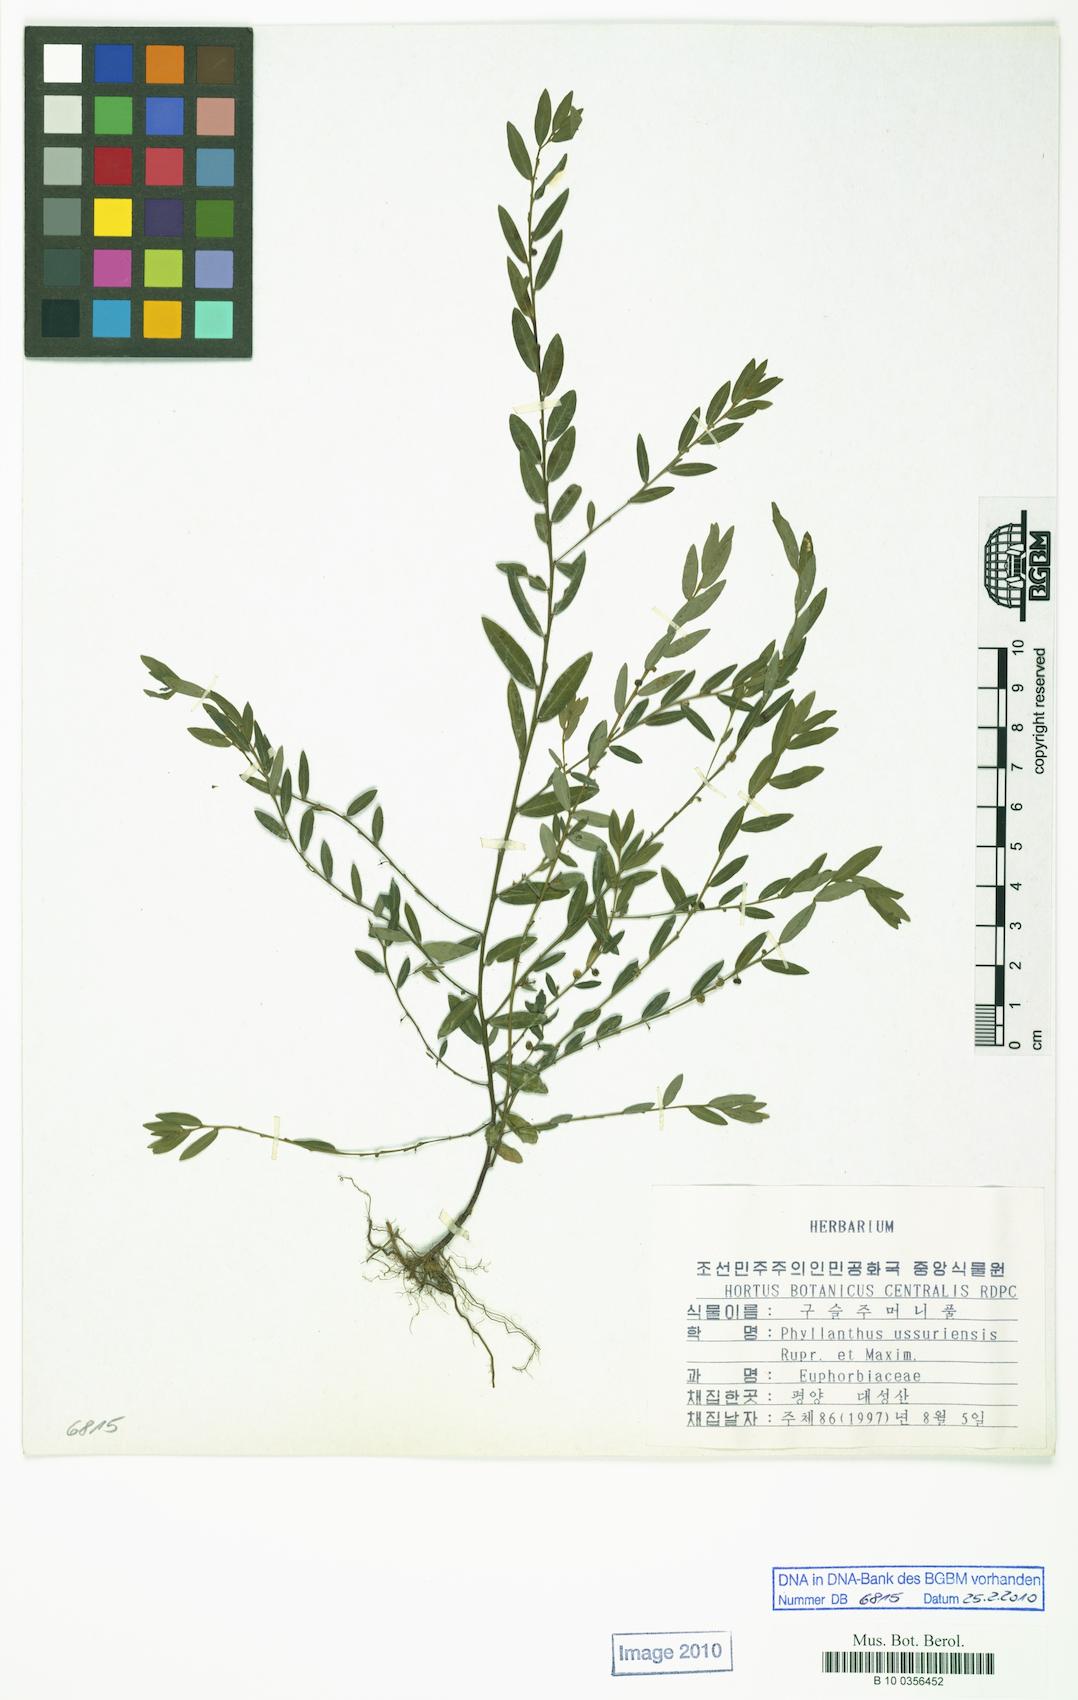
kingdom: Plantae
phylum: Tracheophyta
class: Magnoliopsida
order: Malpighiales
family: Phyllanthaceae
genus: Phyllanthus
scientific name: Phyllanthus ussuriensis
